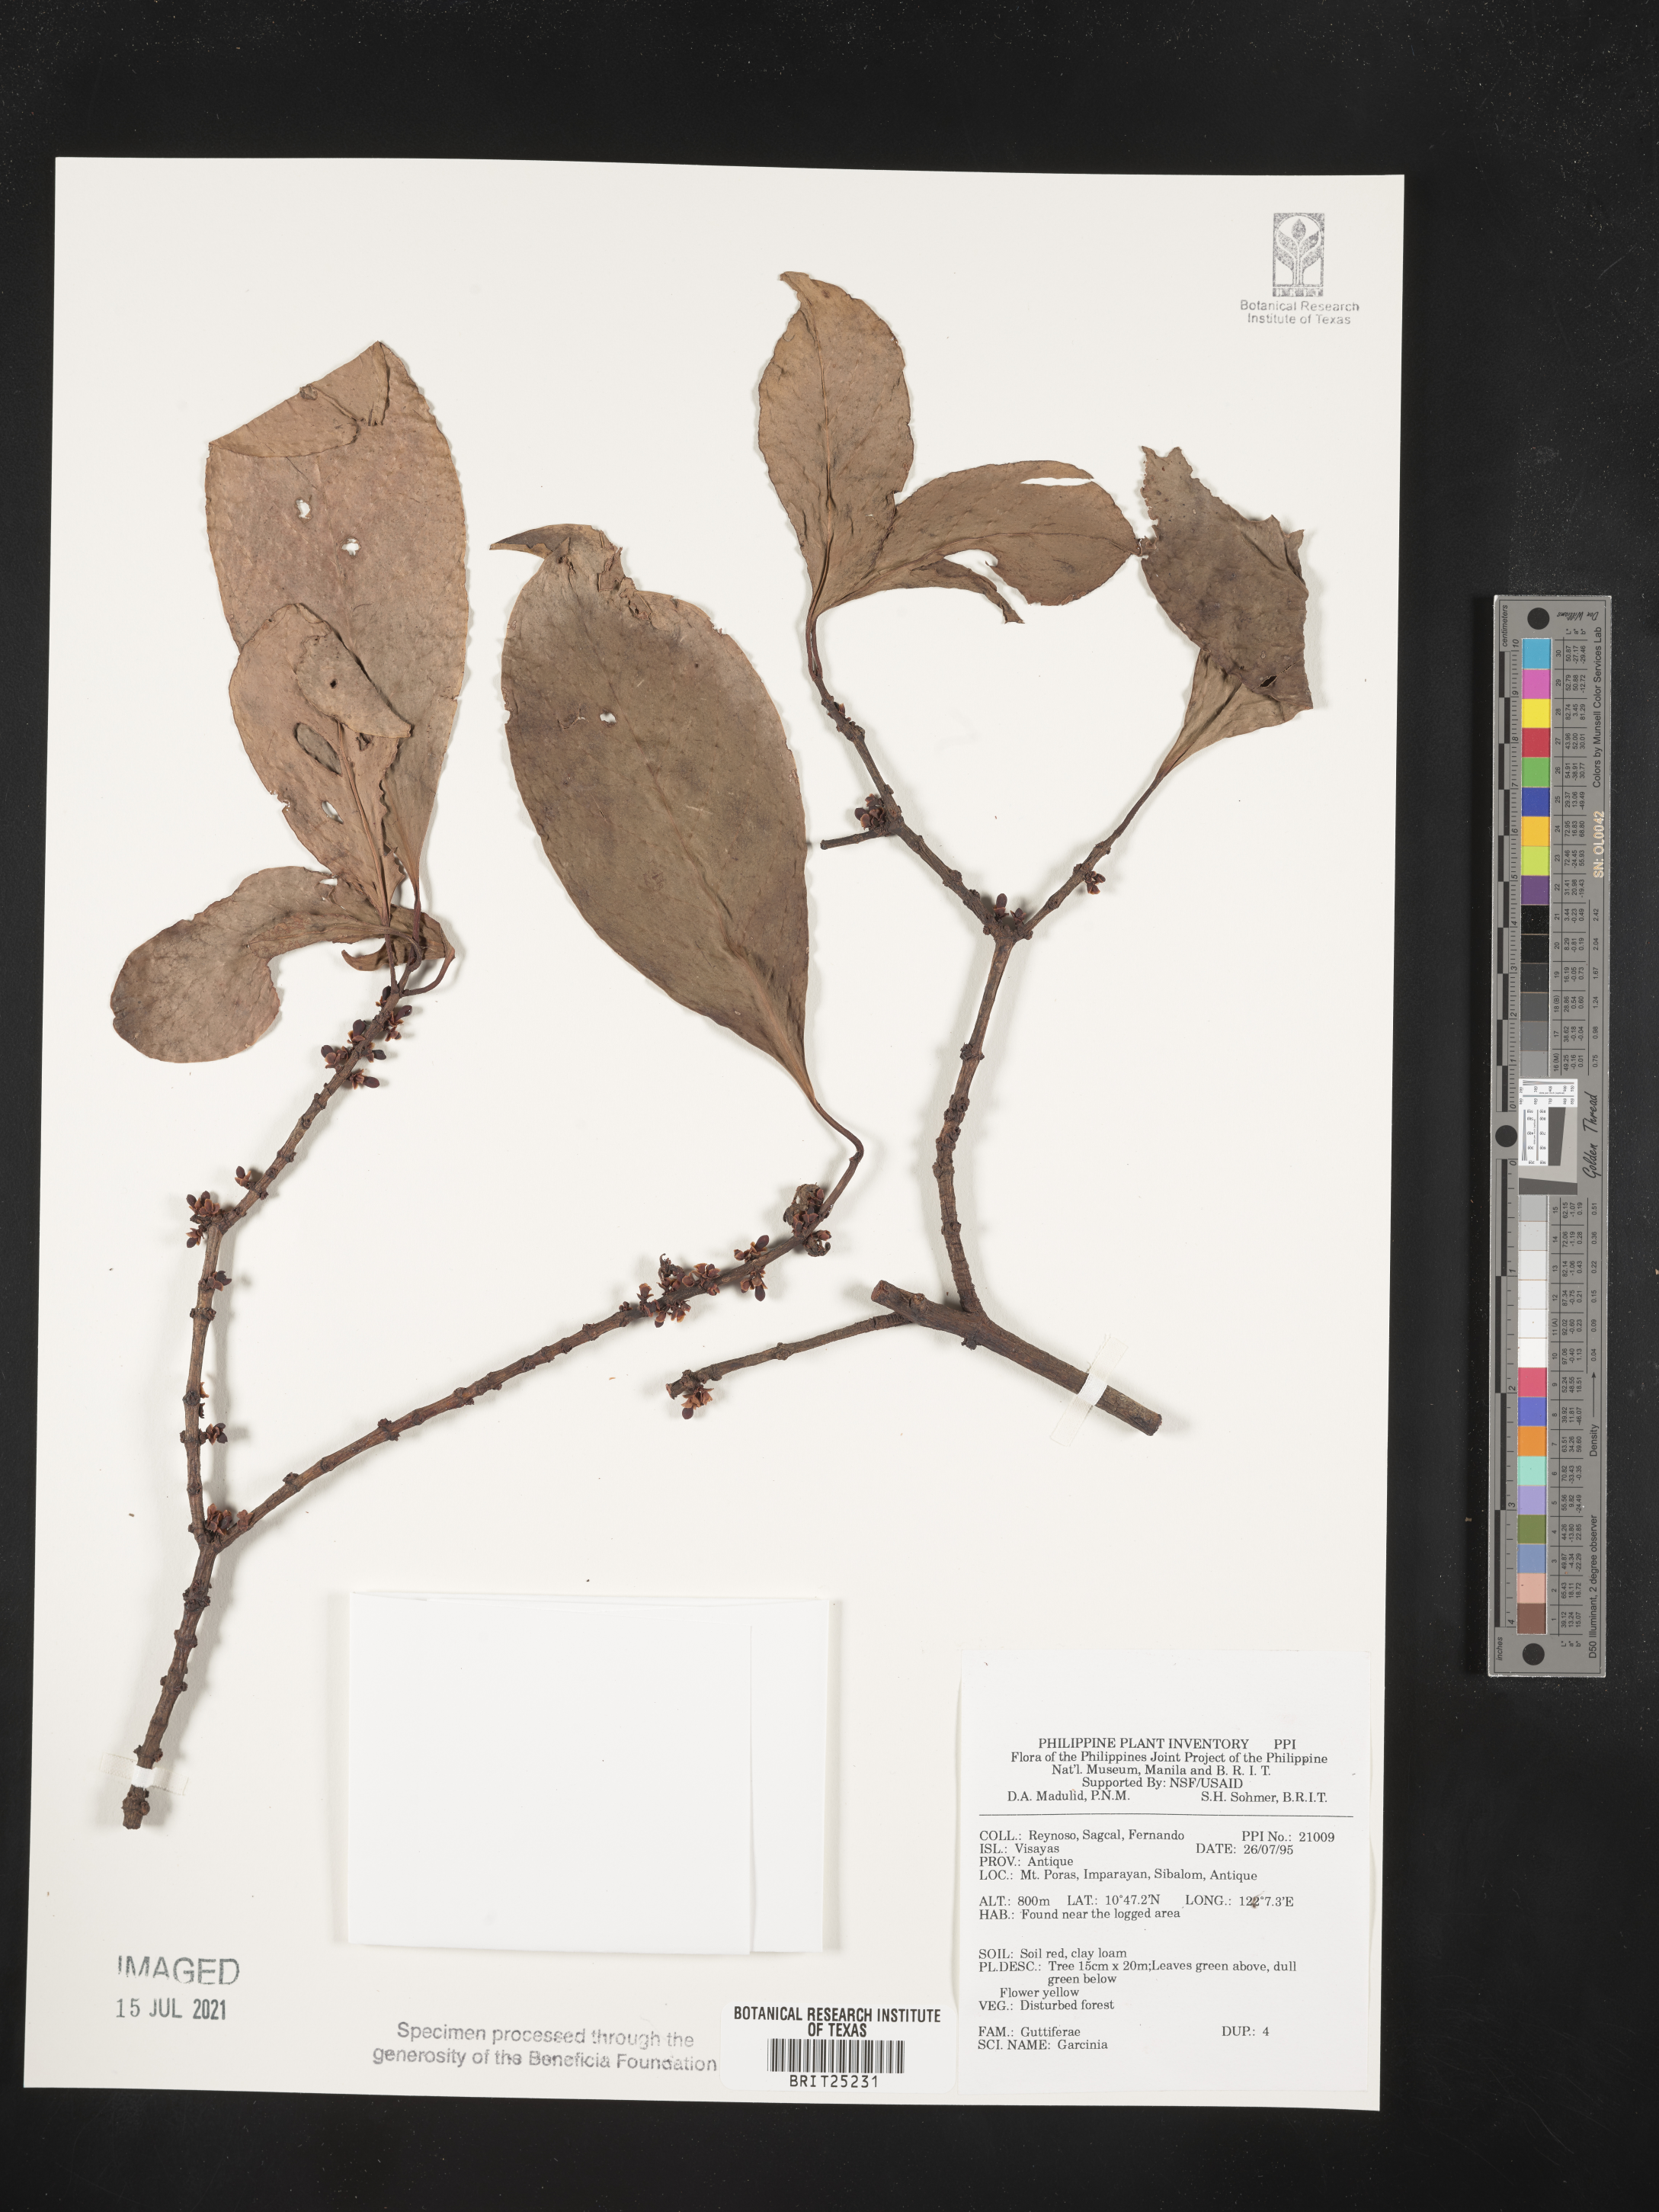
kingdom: Plantae
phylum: Tracheophyta
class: Magnoliopsida
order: Malpighiales
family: Clusiaceae
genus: Garcinia
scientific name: Garcinia
